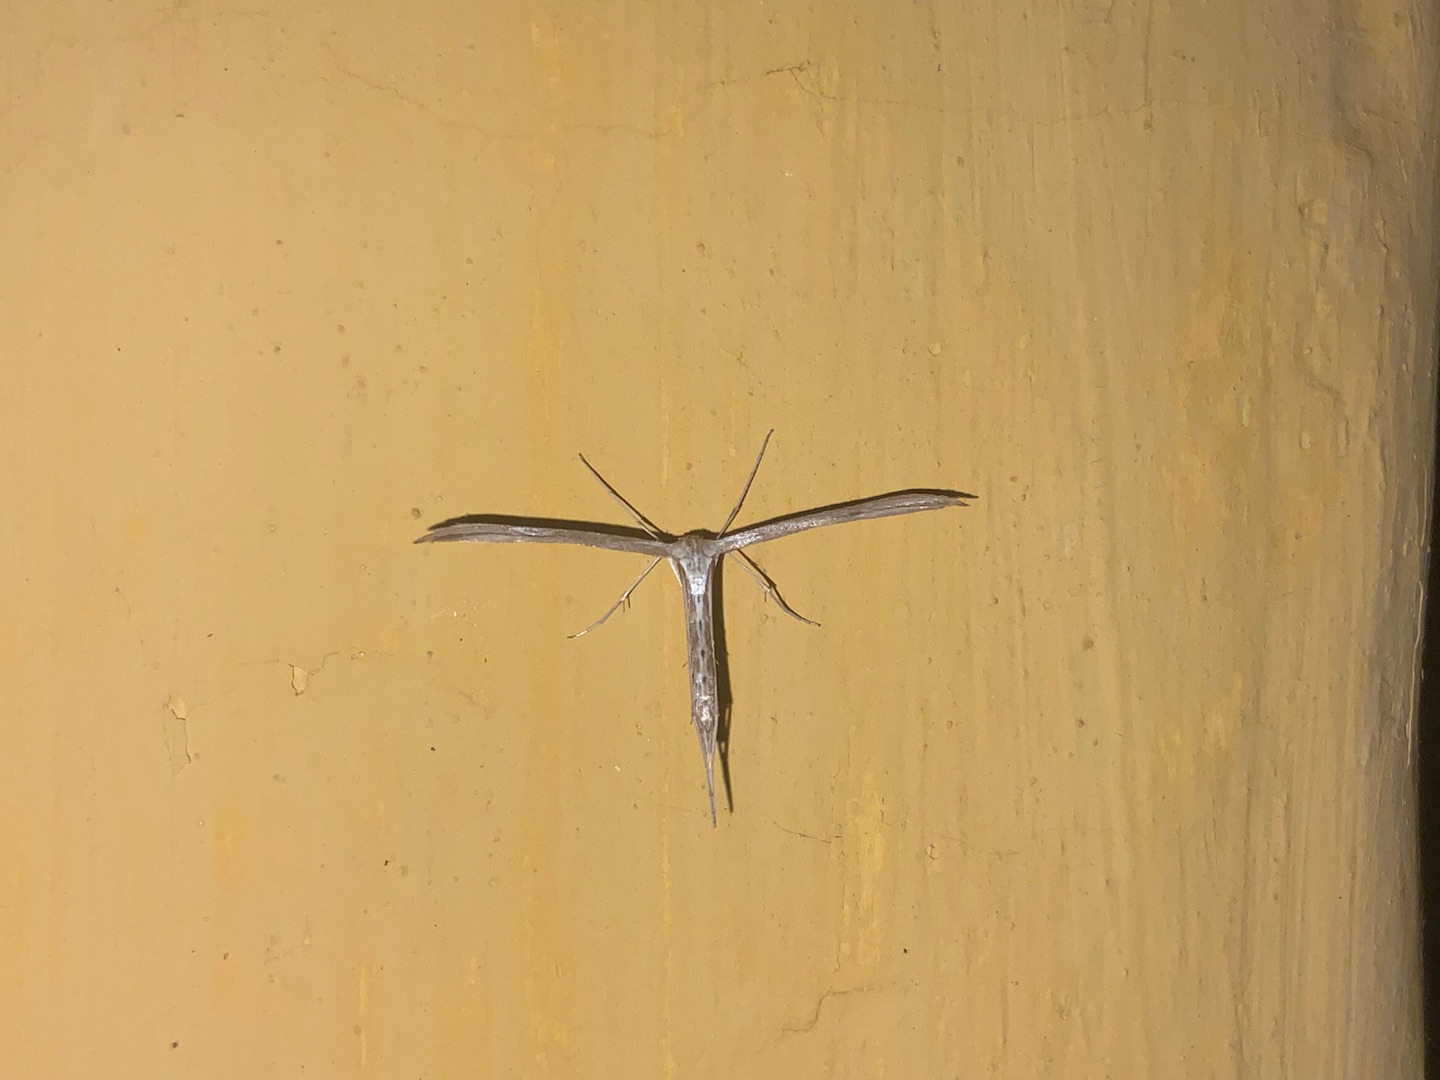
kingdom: Animalia
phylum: Arthropoda
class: Insecta
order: Lepidoptera
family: Pterophoridae
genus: Emmelina
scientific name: Emmelina monodactyla
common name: Snerlefjermøl
